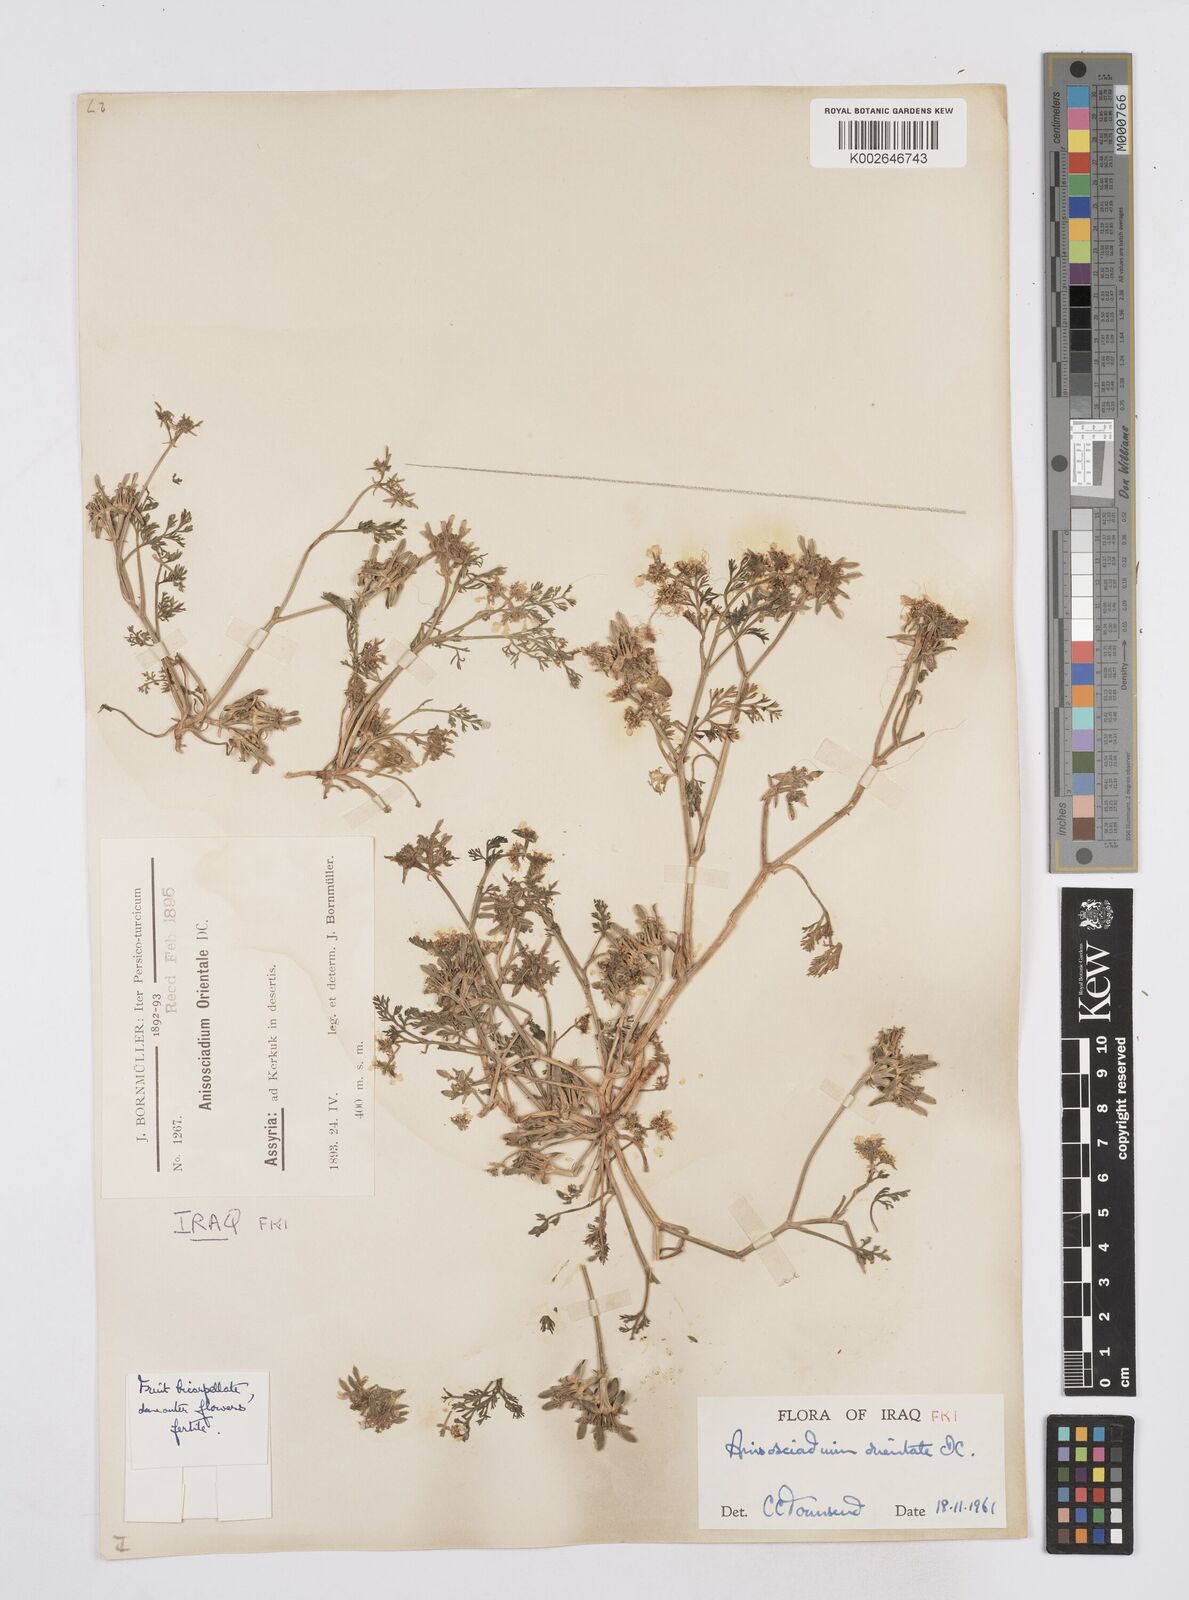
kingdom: Plantae
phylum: Tracheophyta
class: Magnoliopsida
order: Apiales
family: Apiaceae
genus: Anisosciadium
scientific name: Anisosciadium orientale
